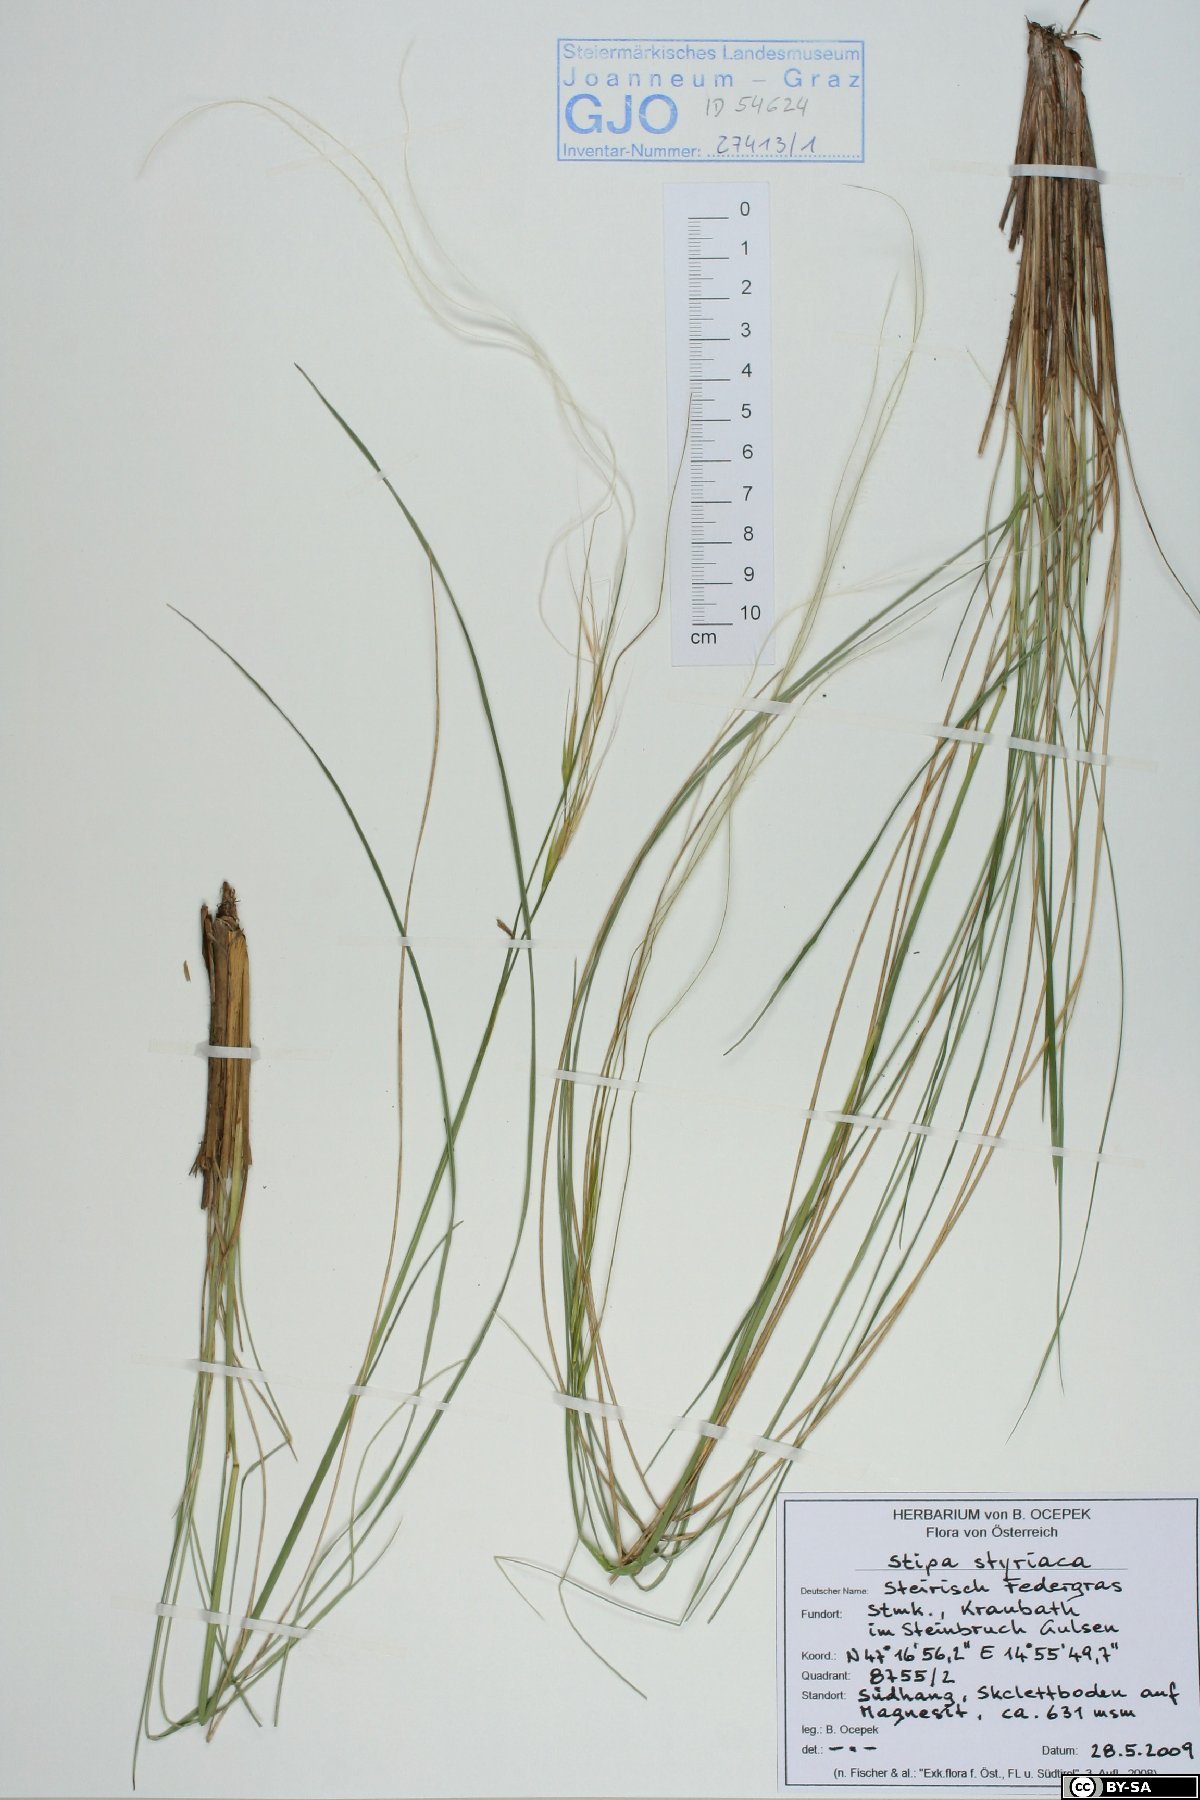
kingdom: Plantae
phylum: Tracheophyta
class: Liliopsida
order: Poales
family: Poaceae
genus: Stipa
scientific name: Stipa pennata
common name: European feather grass
